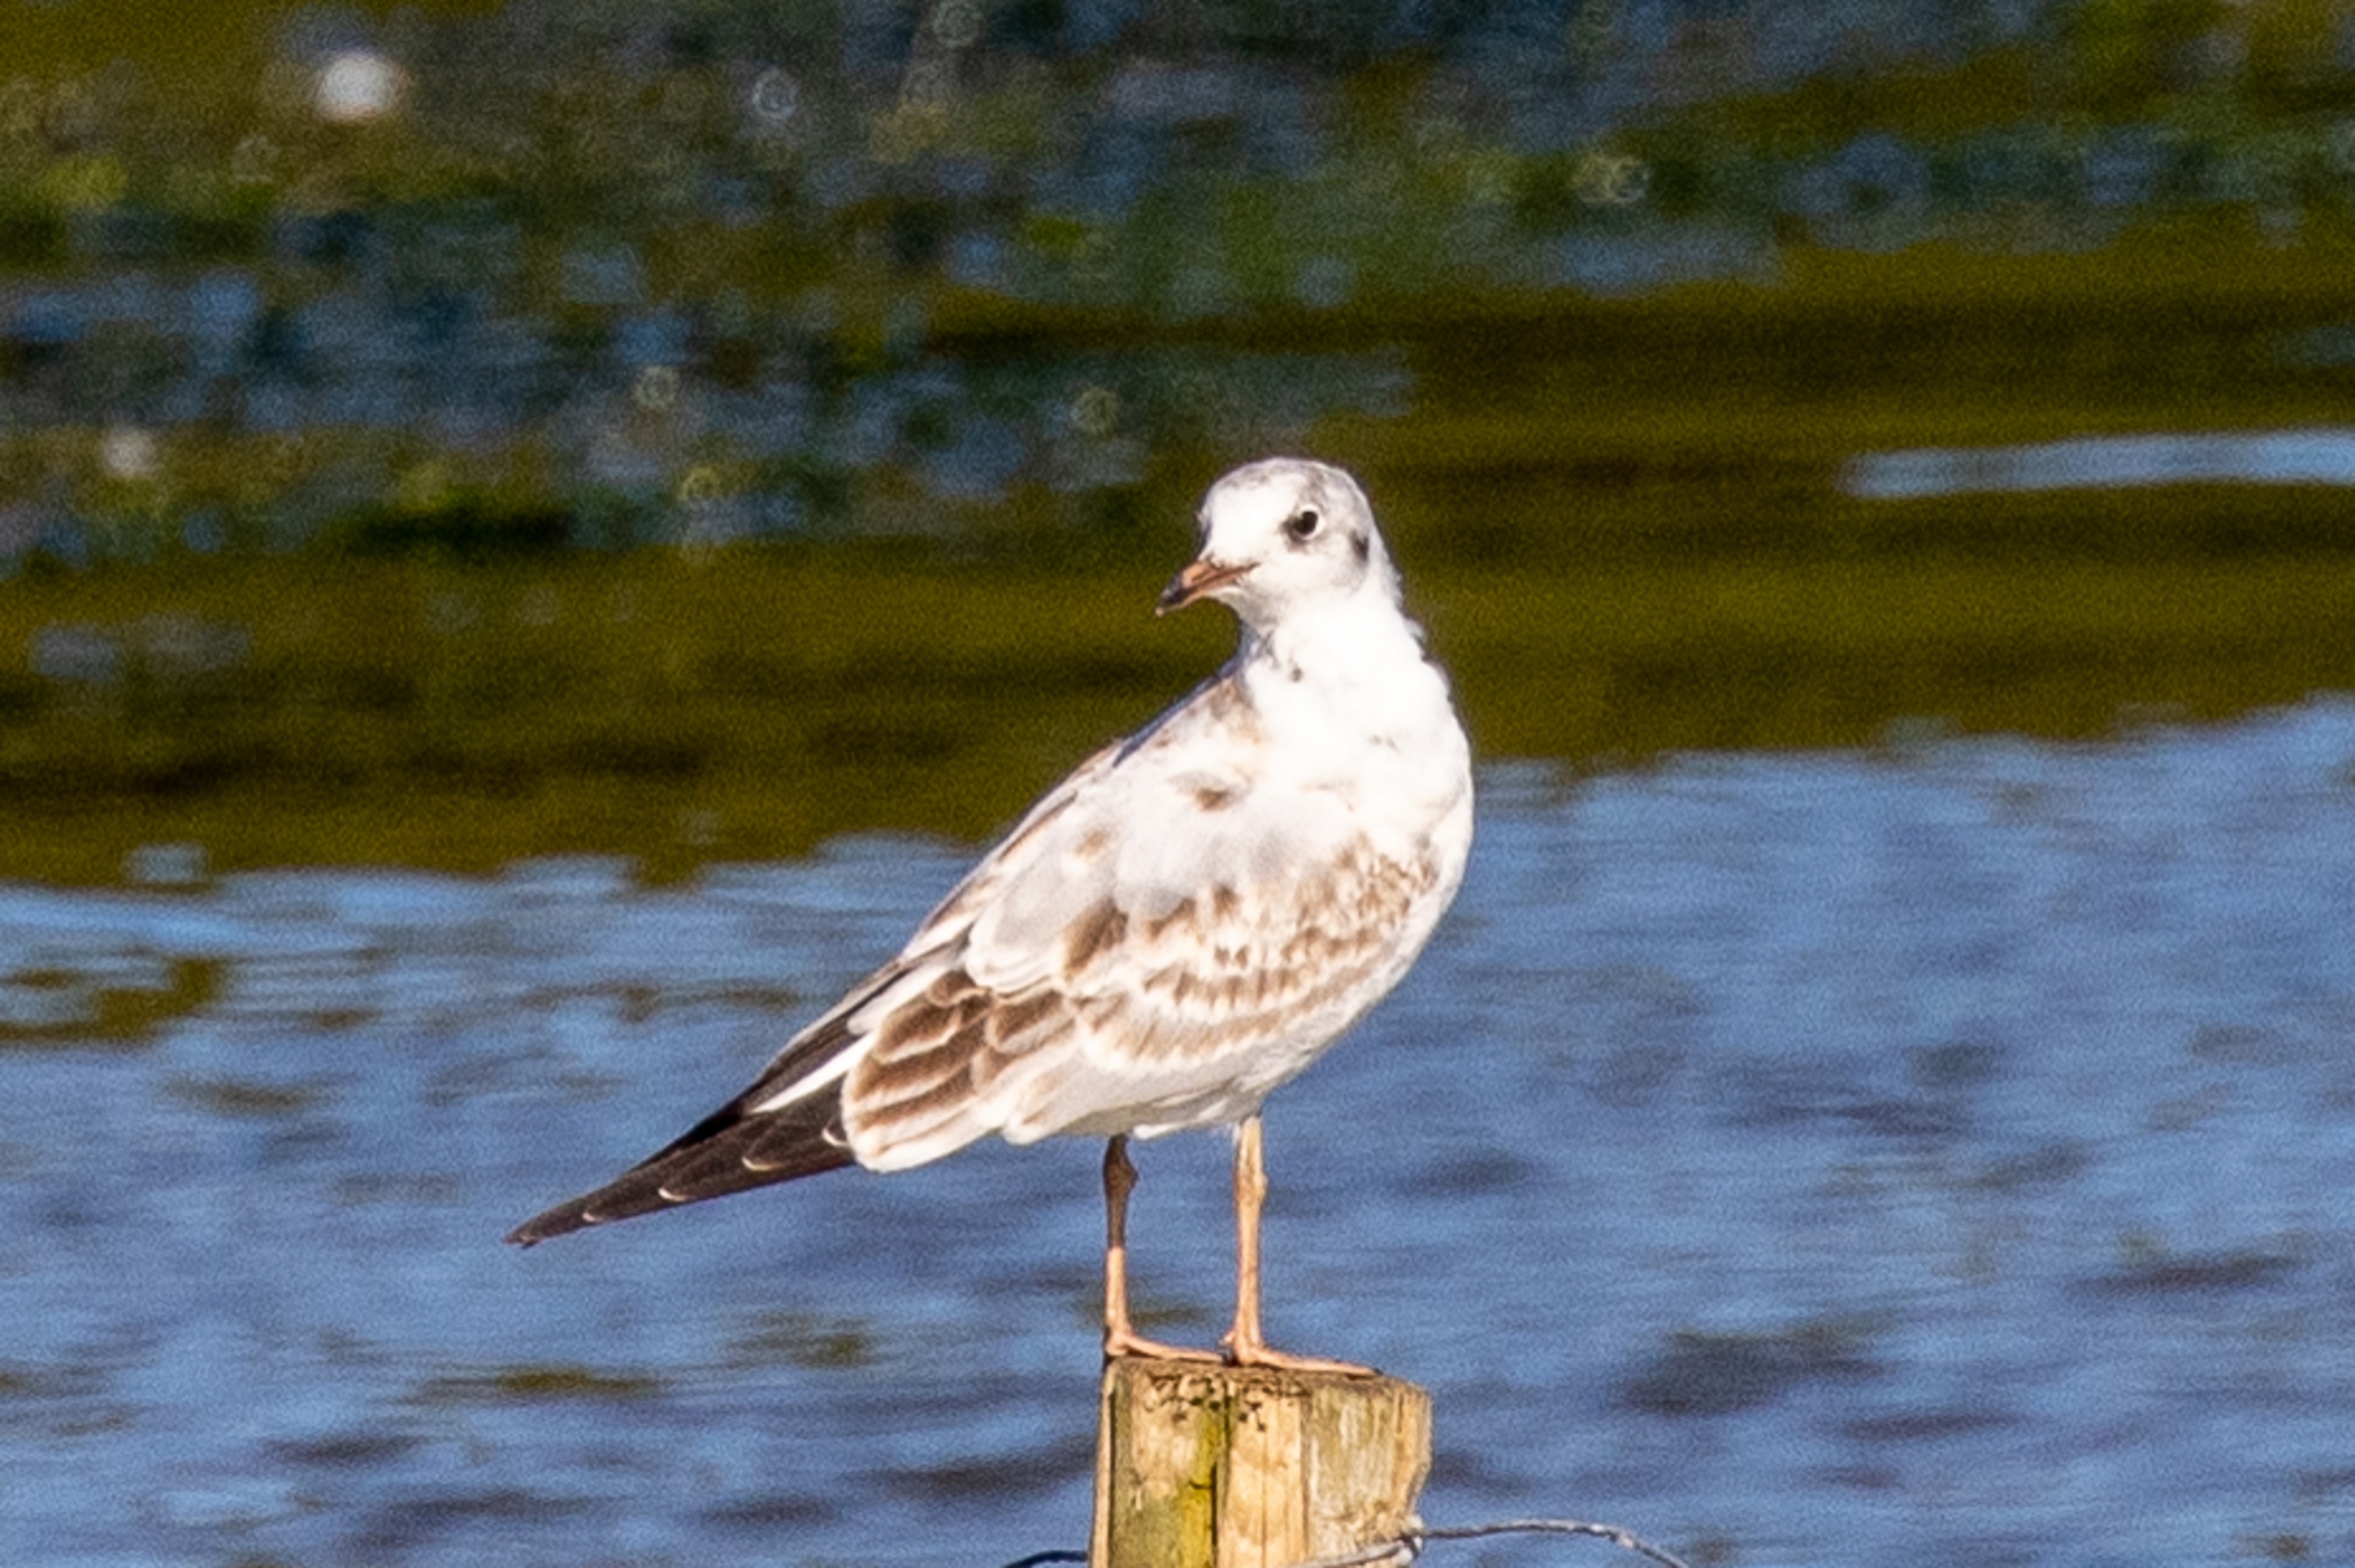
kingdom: Animalia
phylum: Chordata
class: Aves
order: Charadriiformes
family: Laridae
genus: Chroicocephalus
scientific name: Chroicocephalus ridibundus
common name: Hættemåge
